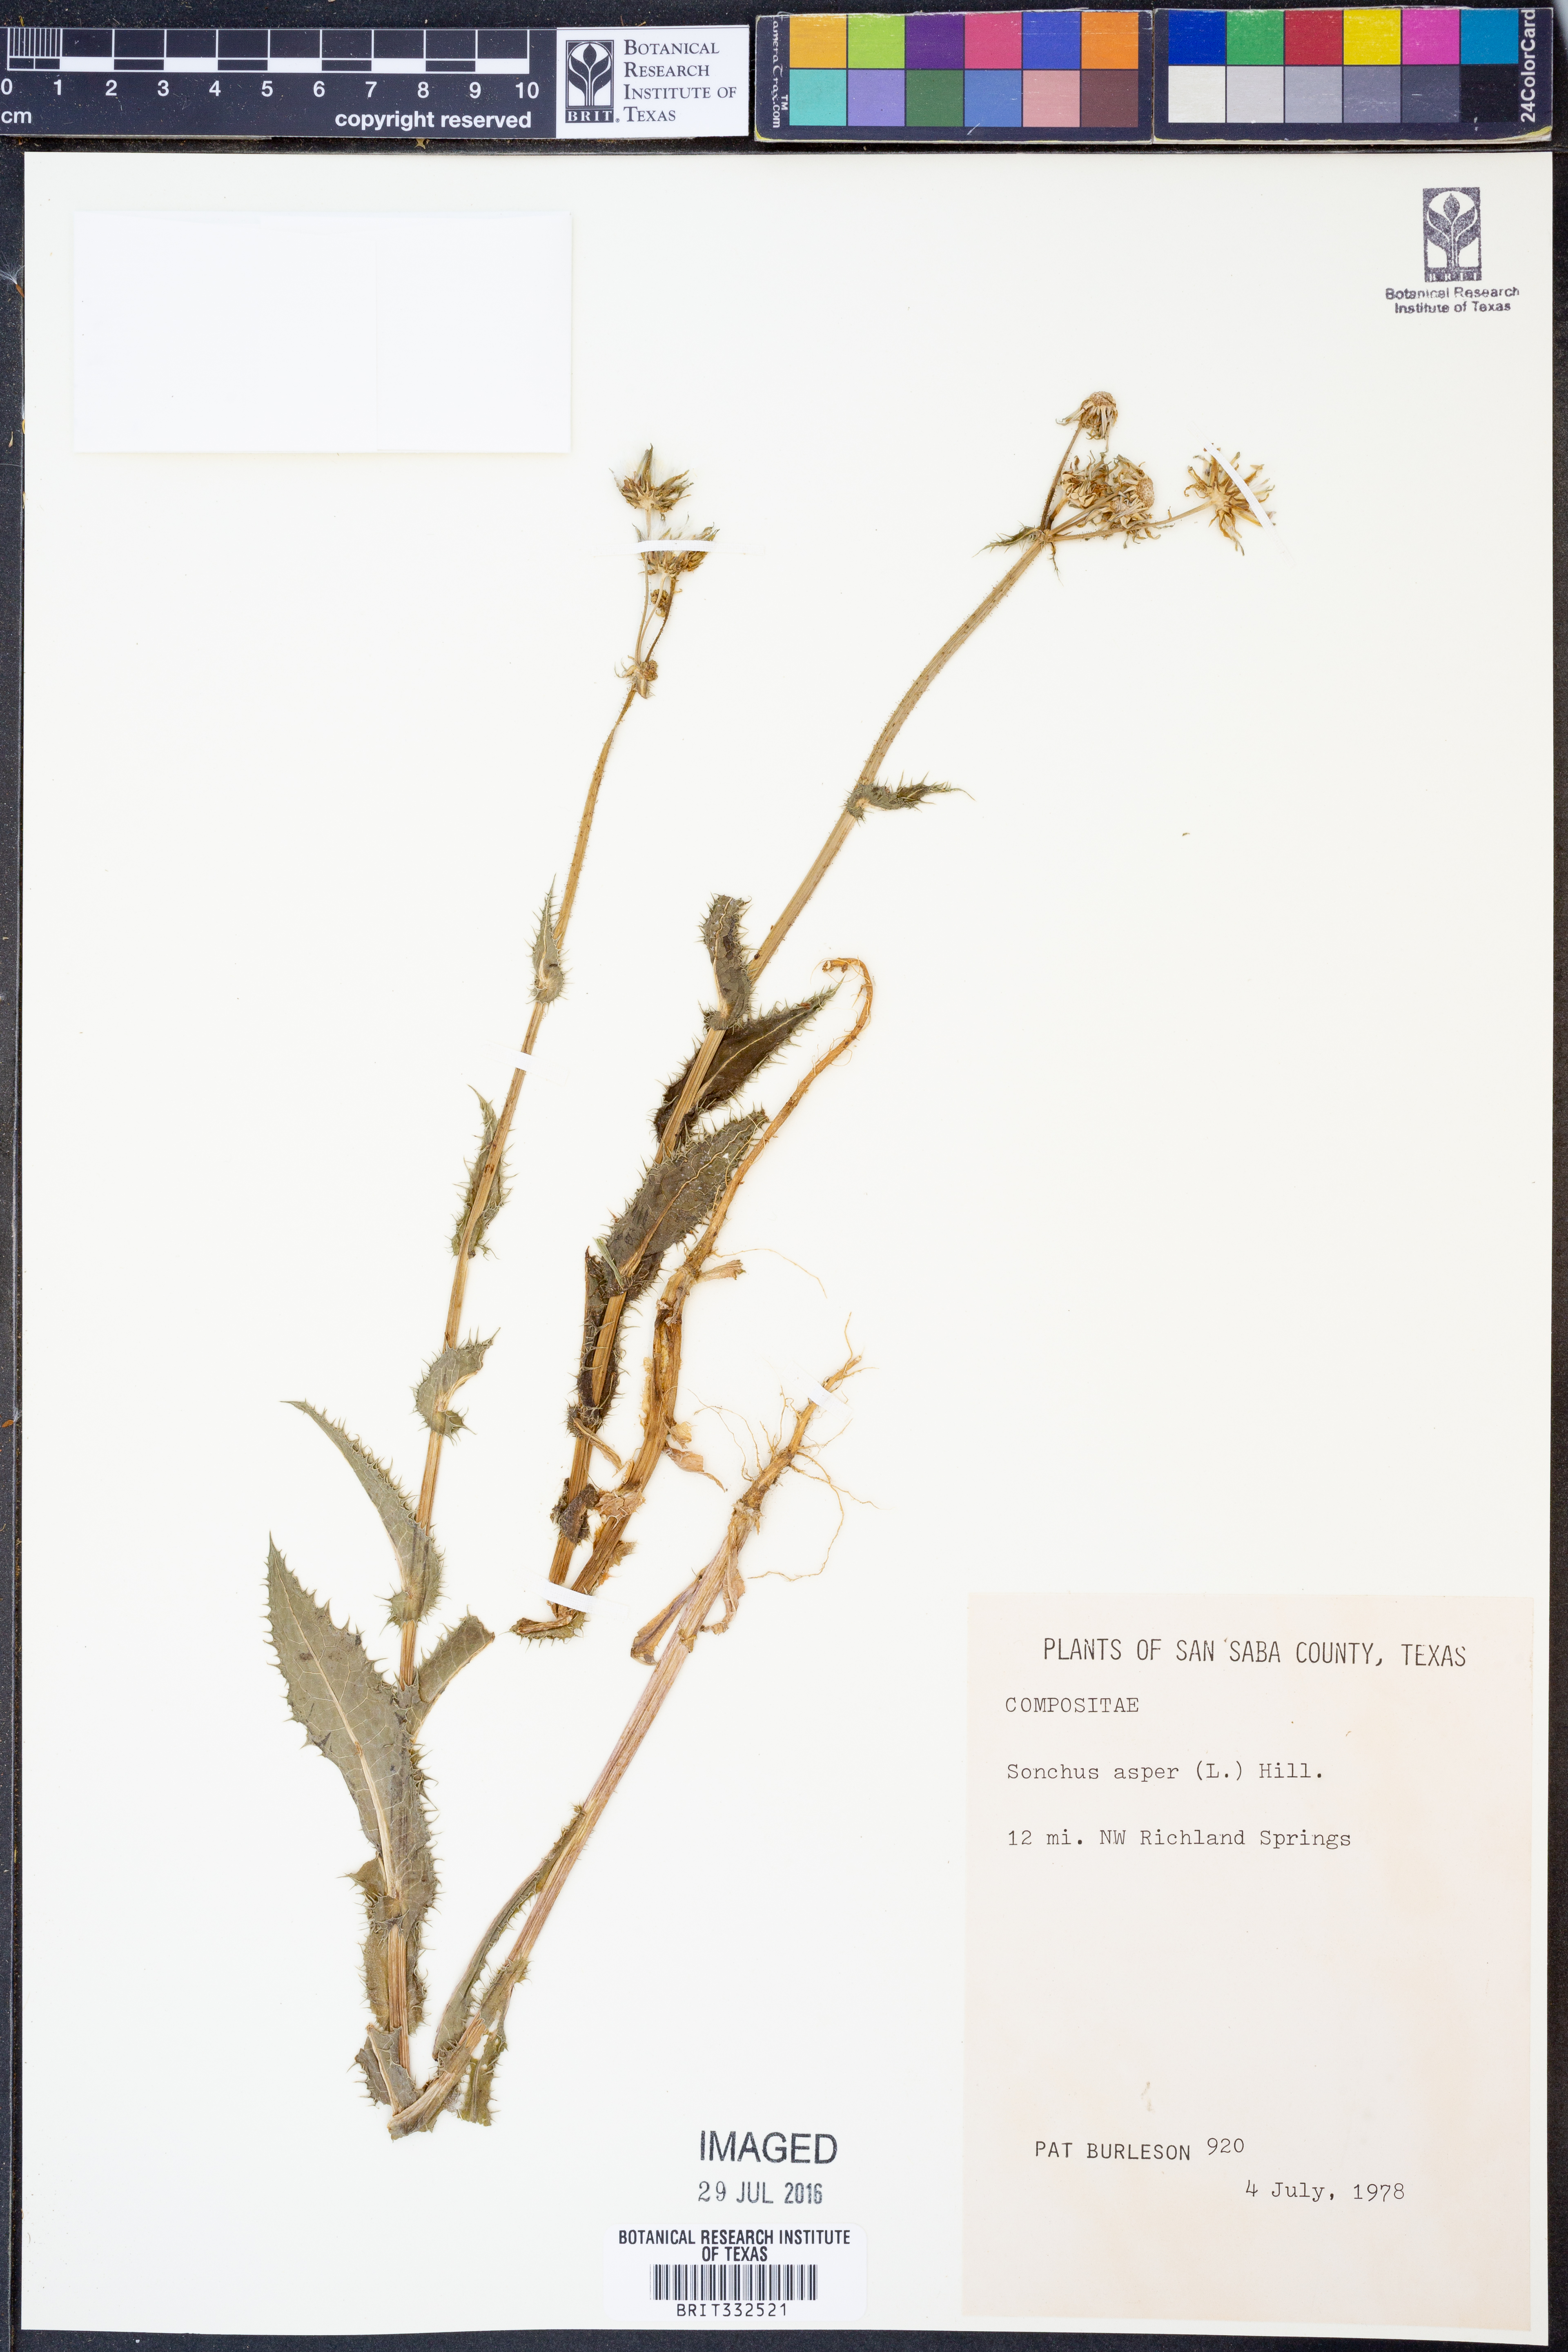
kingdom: Plantae
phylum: Tracheophyta
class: Magnoliopsida
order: Asterales
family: Asteraceae
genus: Sonchus
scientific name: Sonchus asper
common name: Prickly sow-thistle
